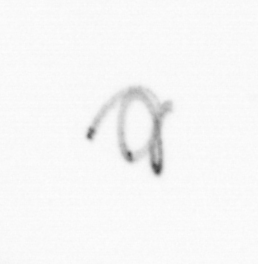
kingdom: Chromista
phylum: Ochrophyta
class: Bacillariophyceae
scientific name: Bacillariophyceae
